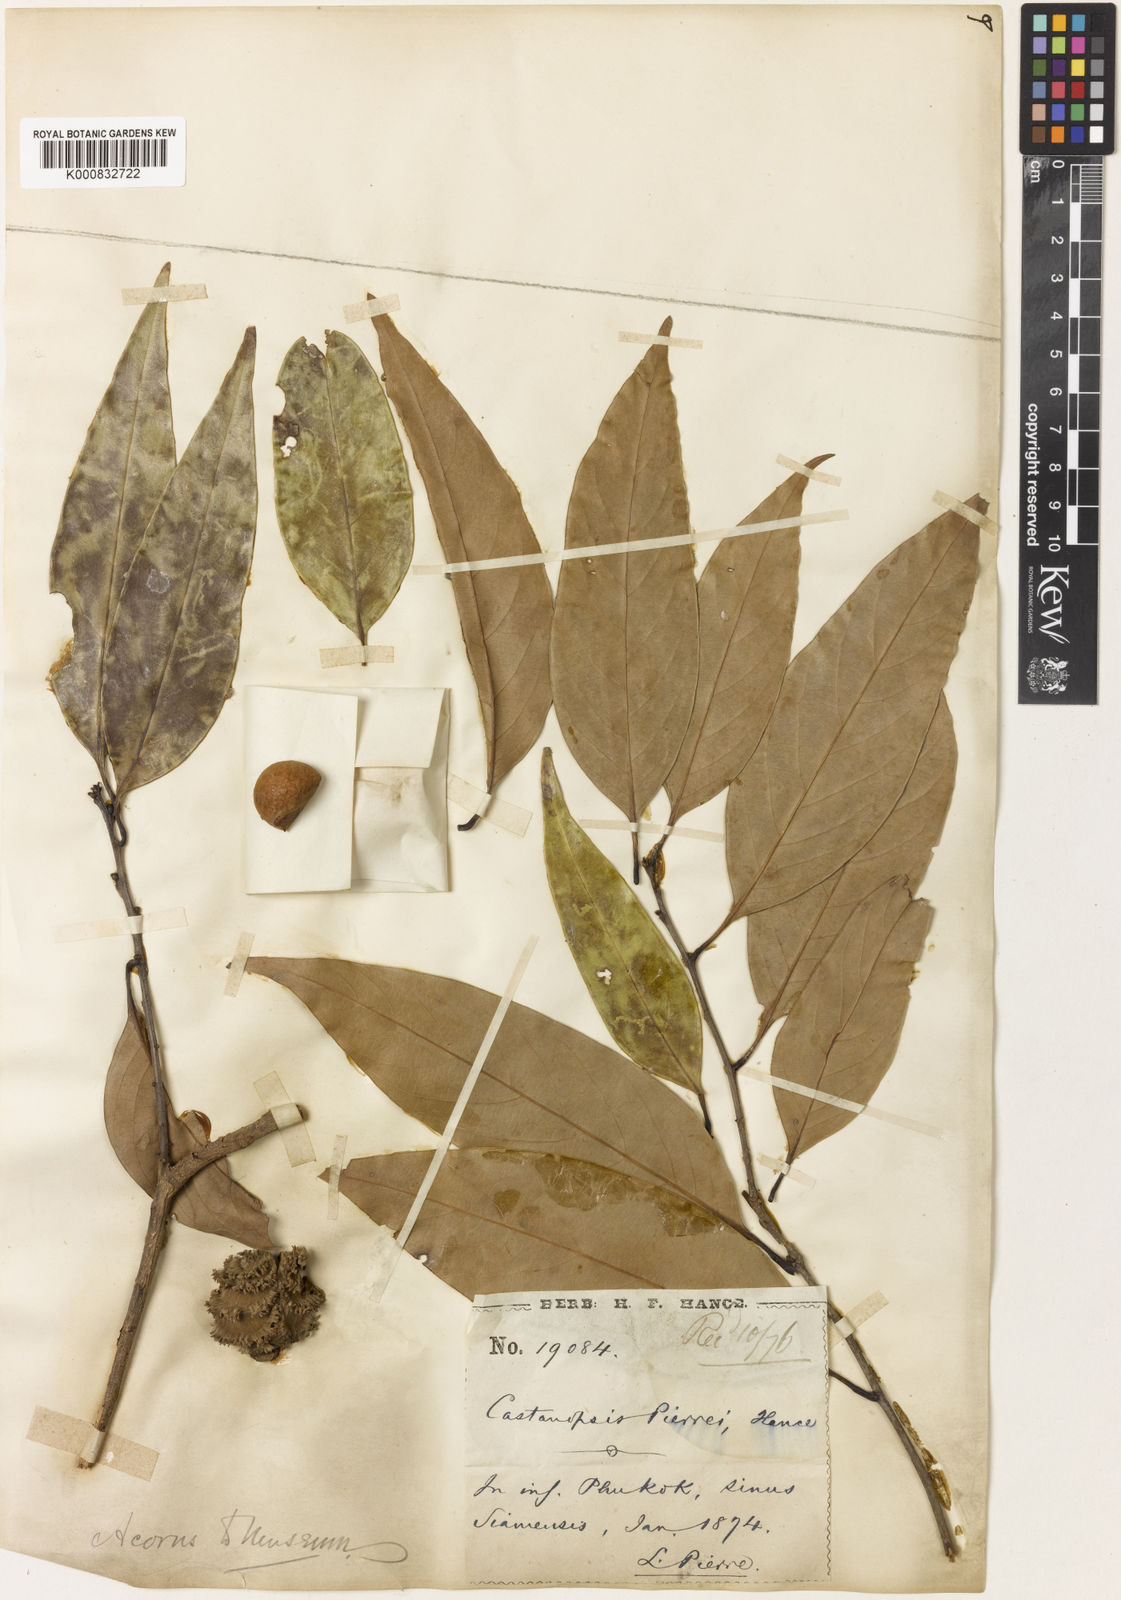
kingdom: Plantae
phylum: Tracheophyta
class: Magnoliopsida
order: Fagales
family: Fagaceae
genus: Castanopsis
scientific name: Castanopsis pierrei
